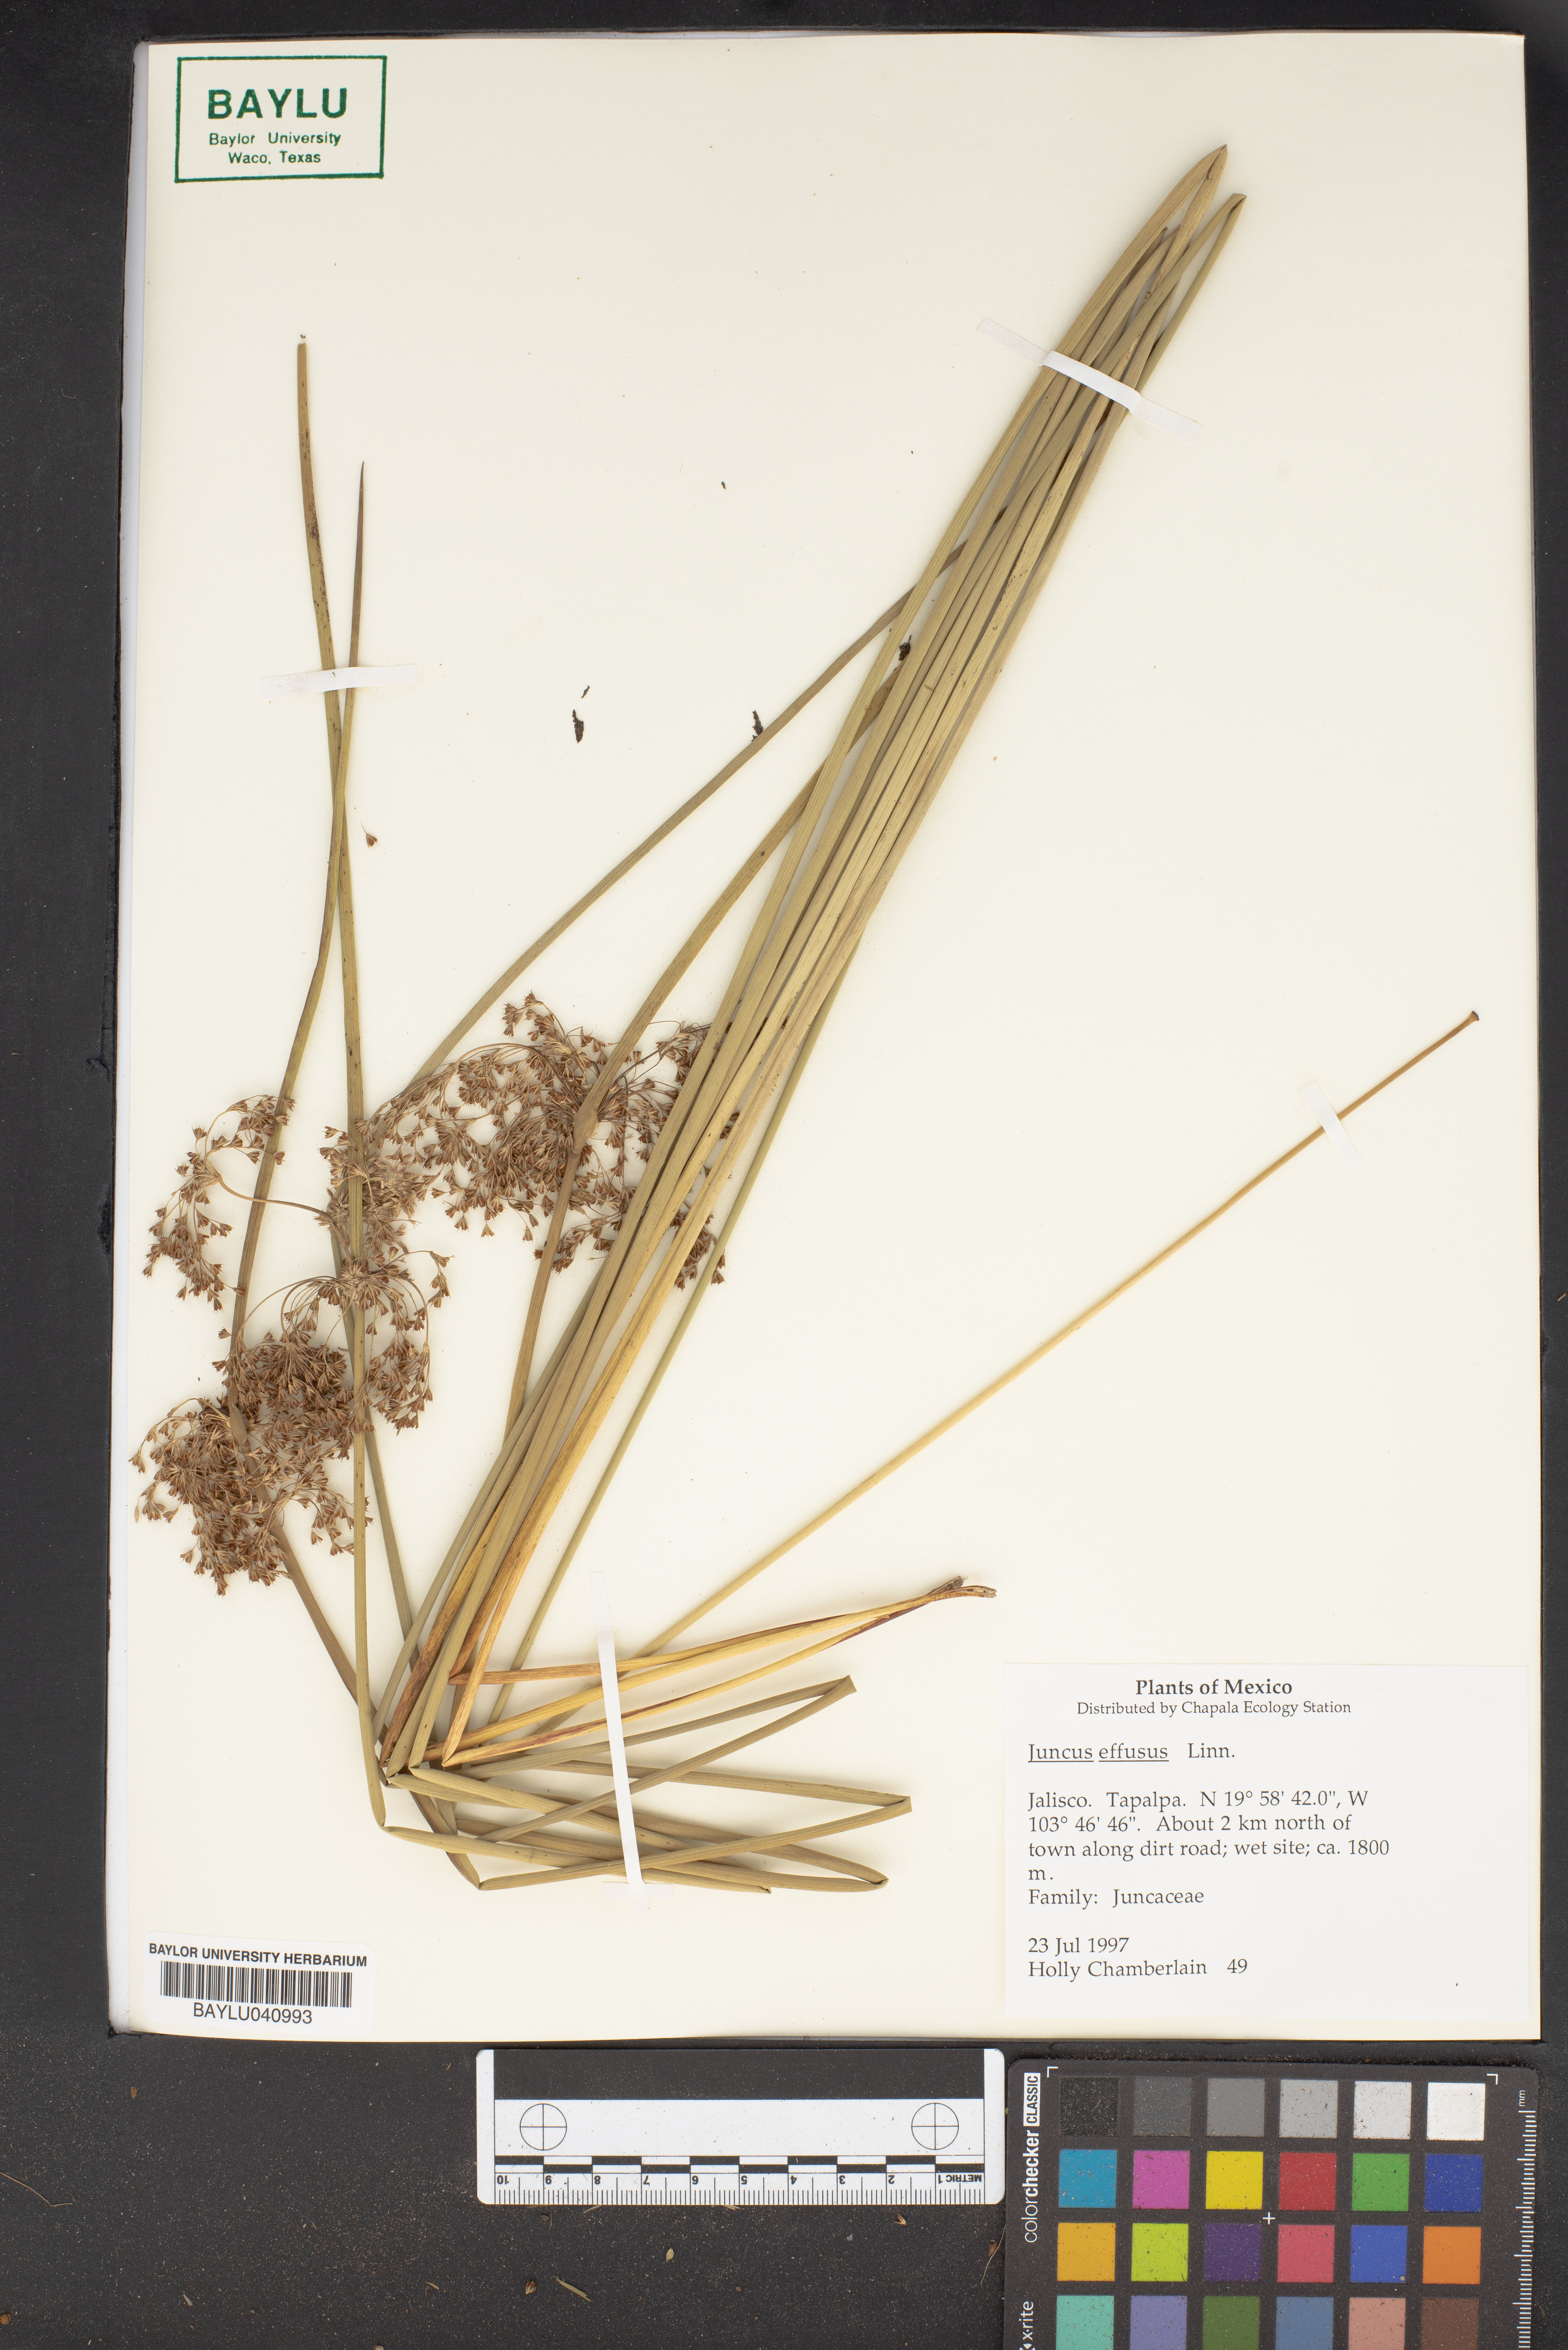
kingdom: Plantae
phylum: Tracheophyta
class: Liliopsida
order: Poales
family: Juncaceae
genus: Juncus
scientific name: Juncus effusus
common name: Soft rush
